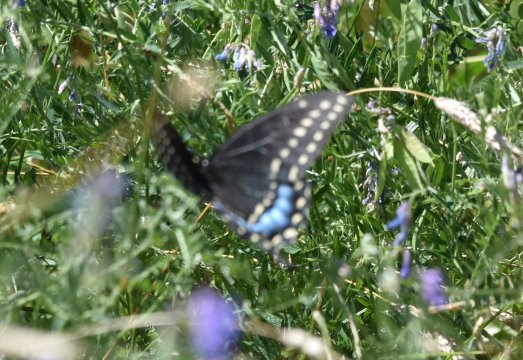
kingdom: Animalia
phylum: Arthropoda
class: Insecta
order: Lepidoptera
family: Papilionidae
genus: Papilio
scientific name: Papilio polyxenes
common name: Black Swallowtail
